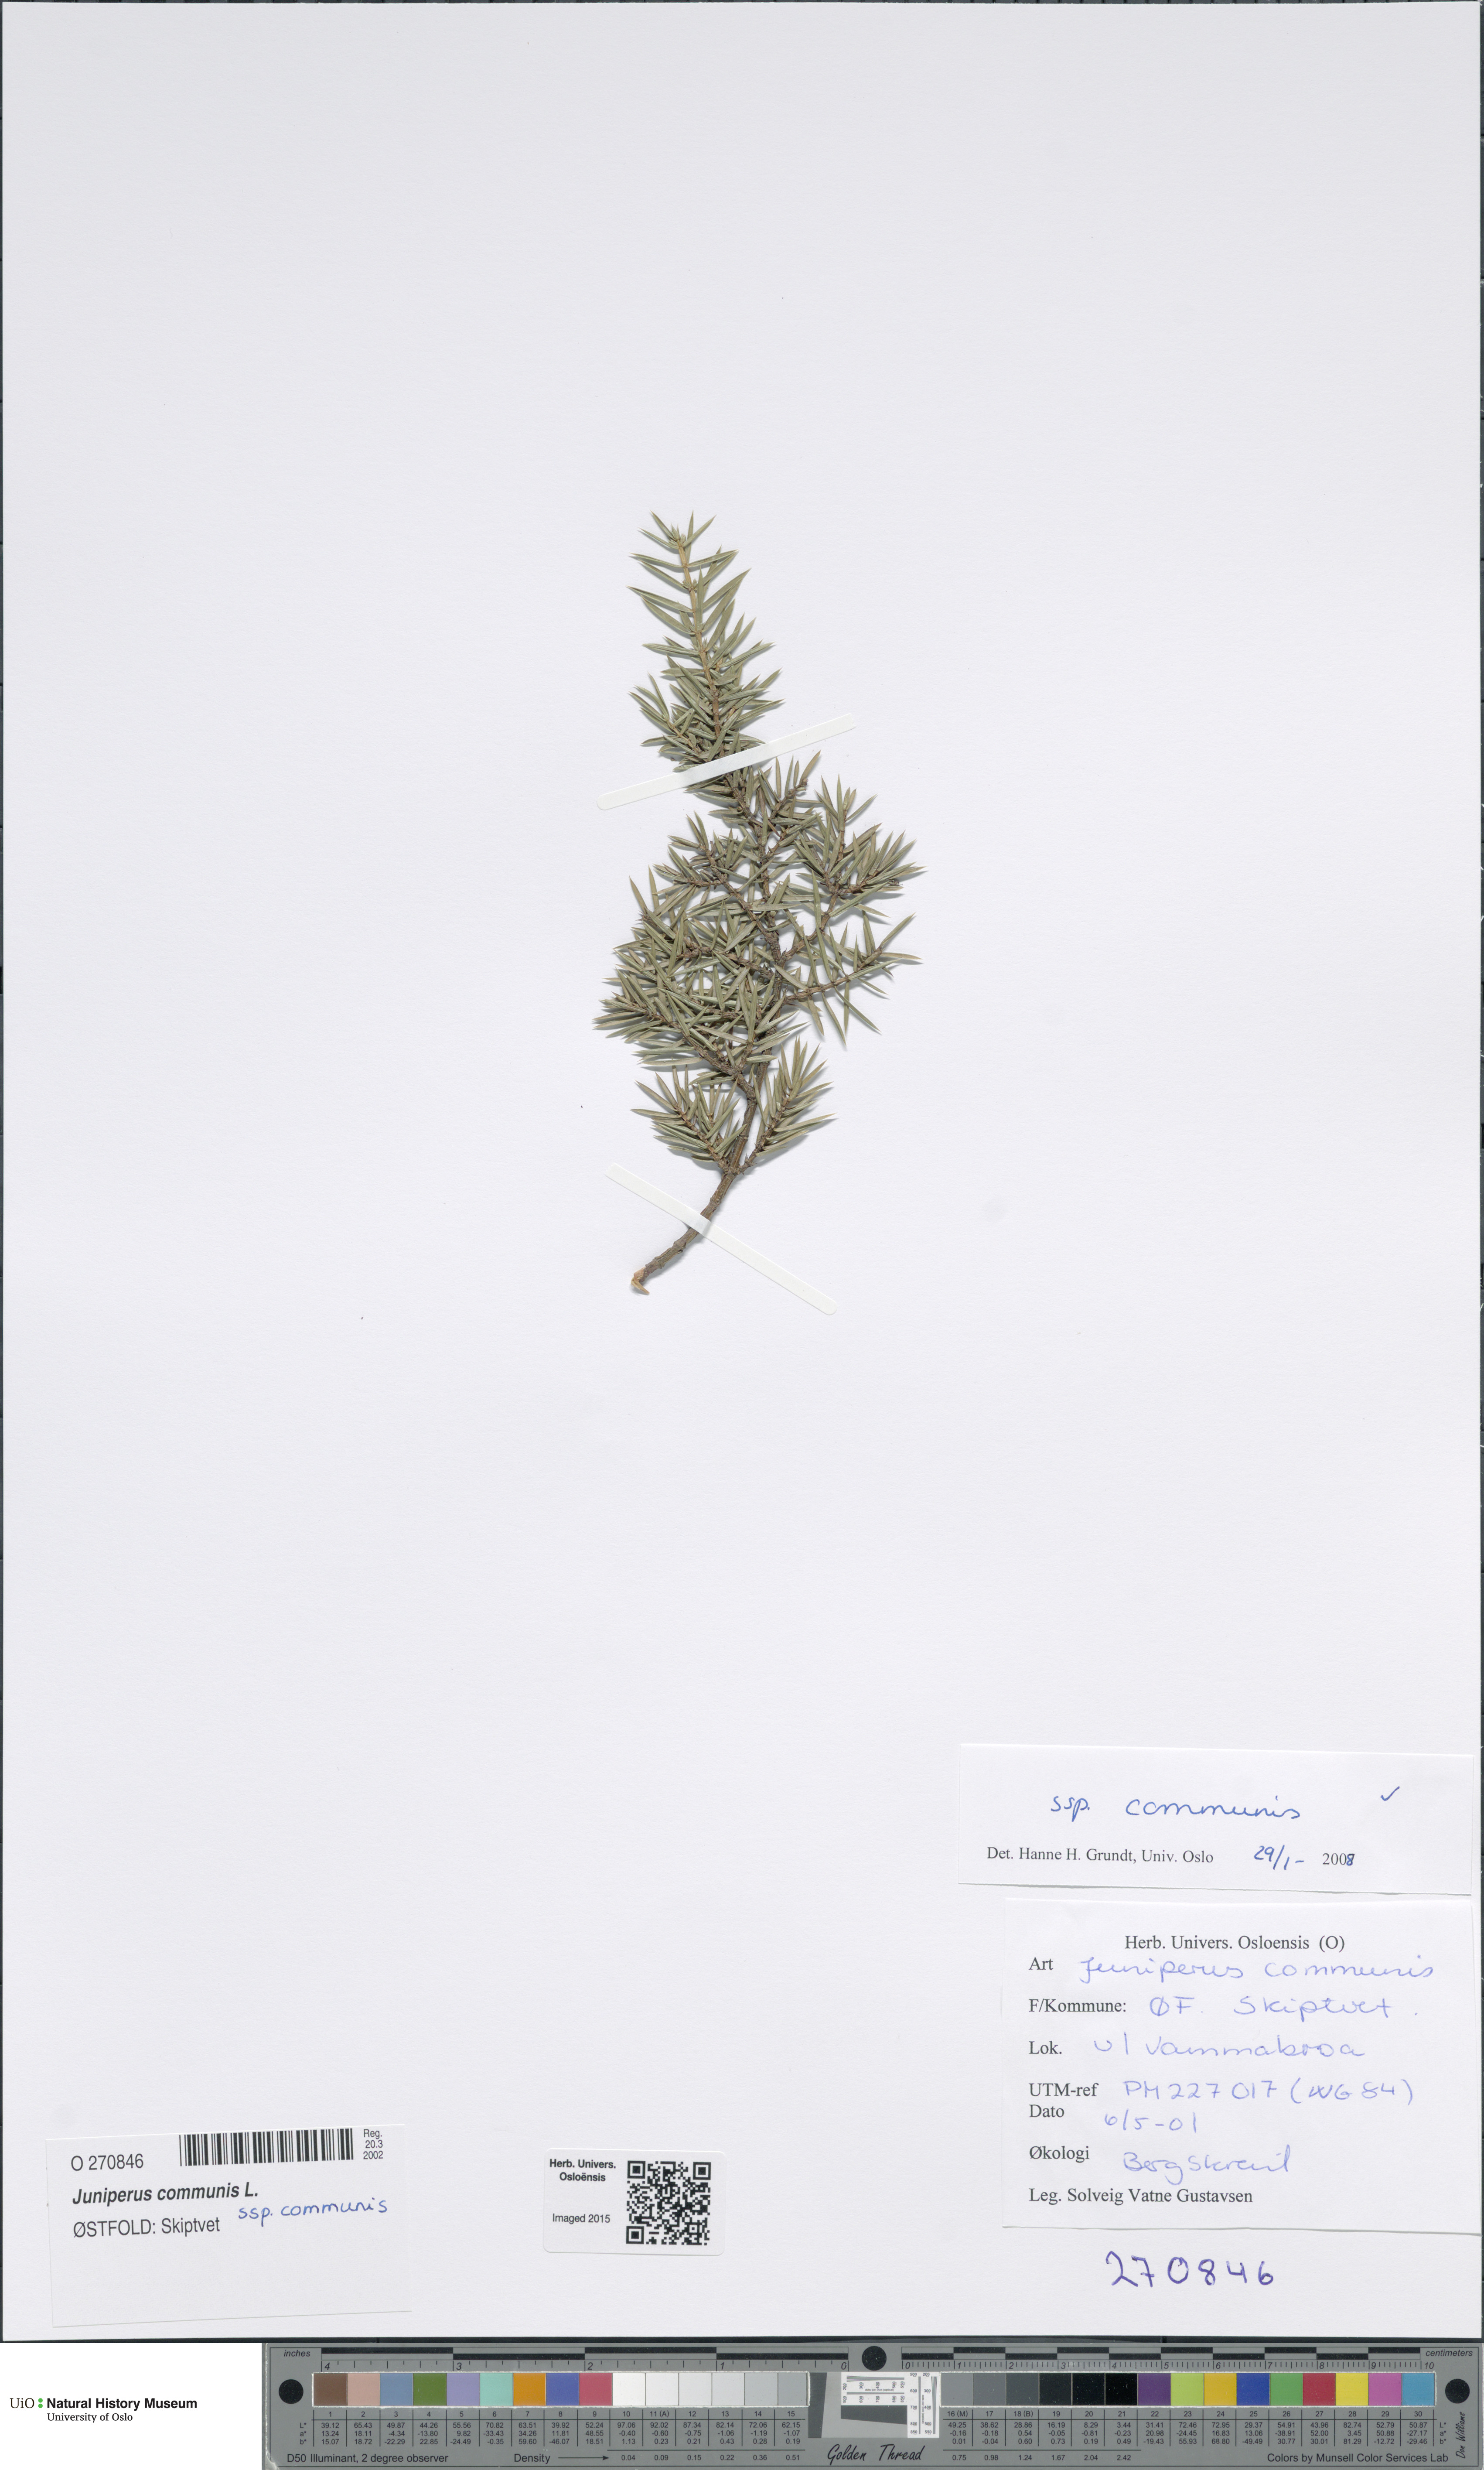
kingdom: Plantae
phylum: Tracheophyta
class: Pinopsida
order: Pinales
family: Cupressaceae
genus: Juniperus
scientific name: Juniperus communis
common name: Common juniper
